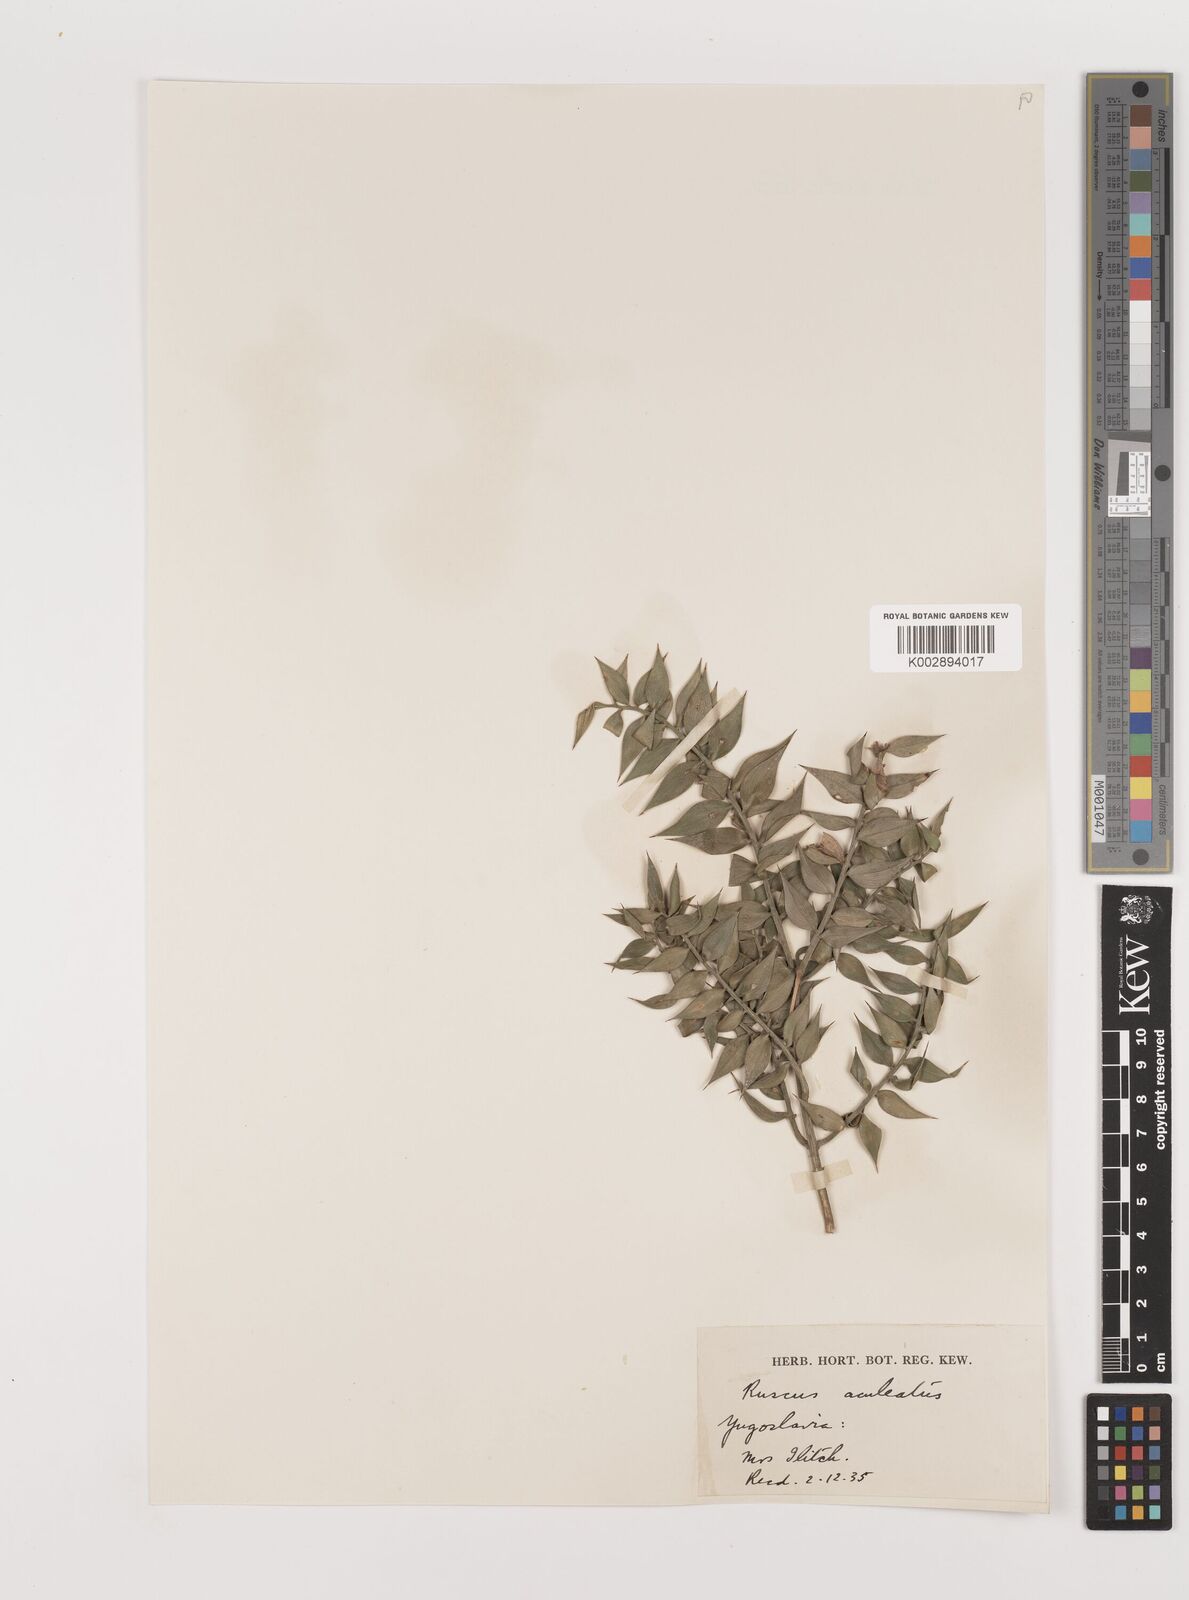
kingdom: Plantae
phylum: Tracheophyta
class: Liliopsida
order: Asparagales
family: Asparagaceae
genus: Ruscus
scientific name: Ruscus aculeatus
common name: Butcher's-broom
